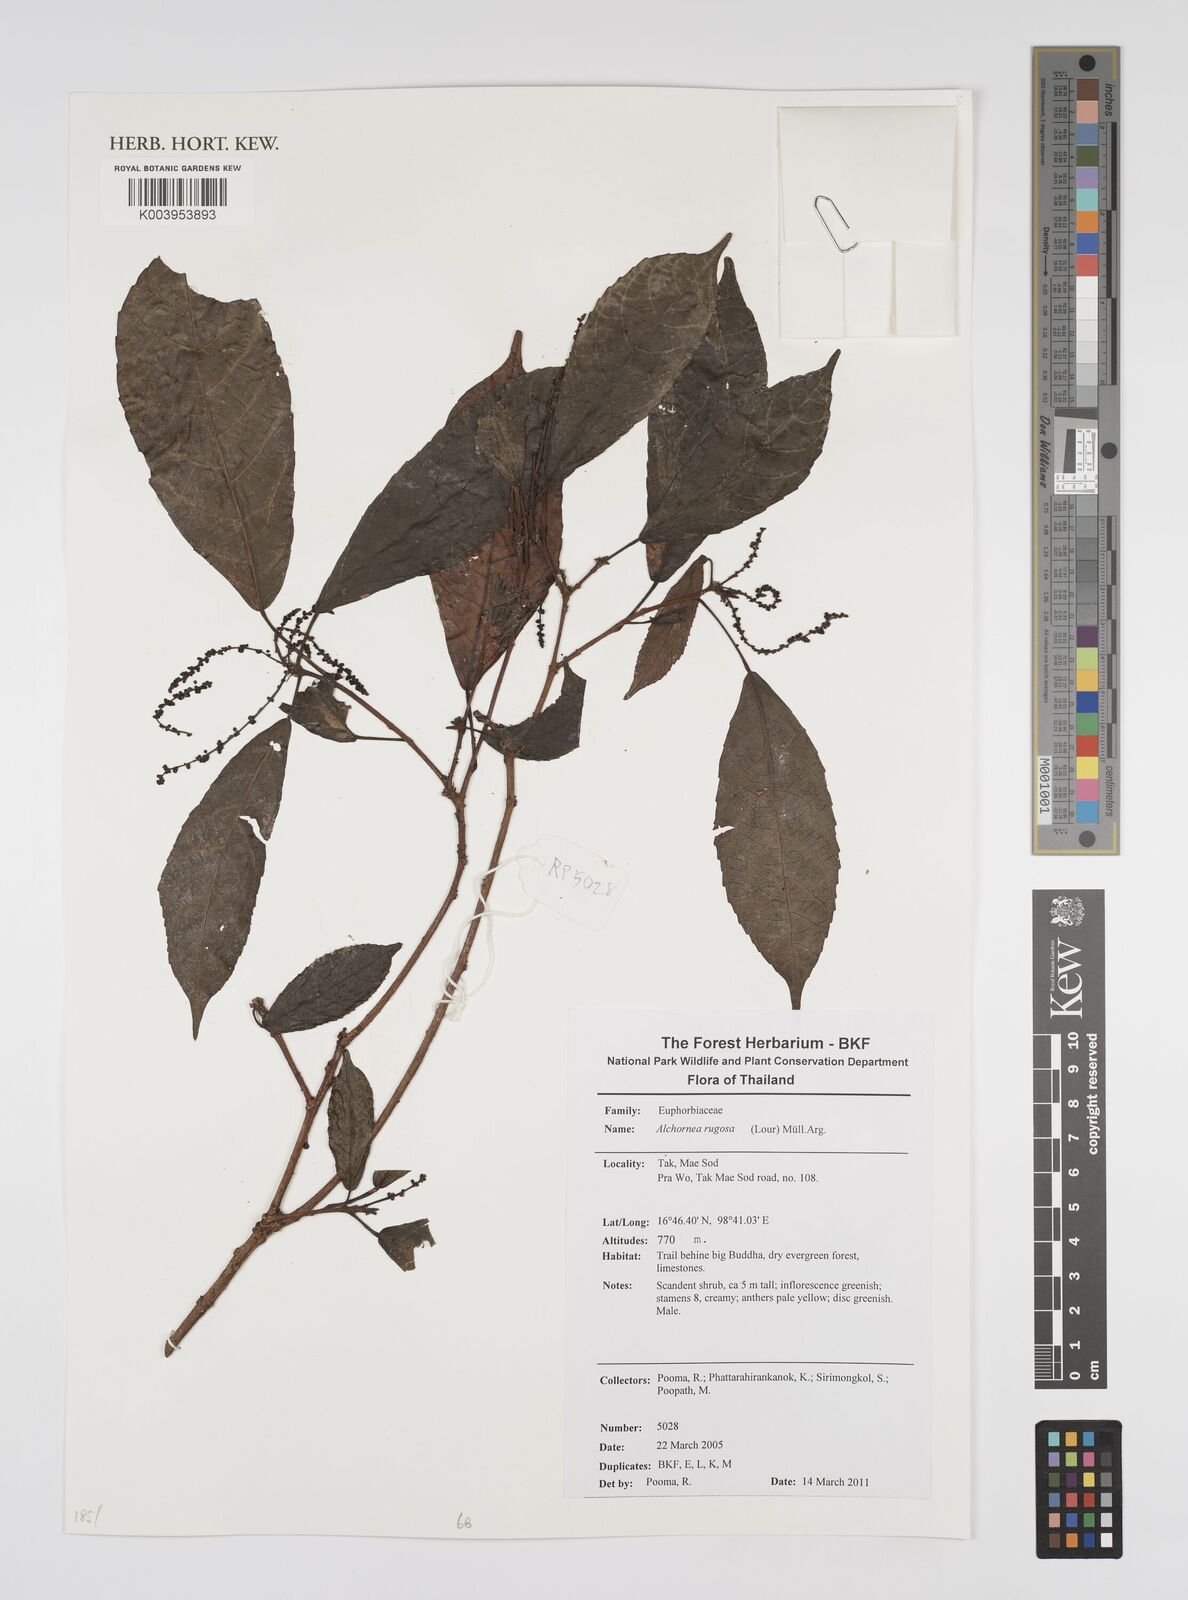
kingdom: Plantae
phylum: Tracheophyta
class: Magnoliopsida
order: Malpighiales
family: Euphorbiaceae
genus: Alchornea
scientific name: Alchornea rugosa
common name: Alchorntree
